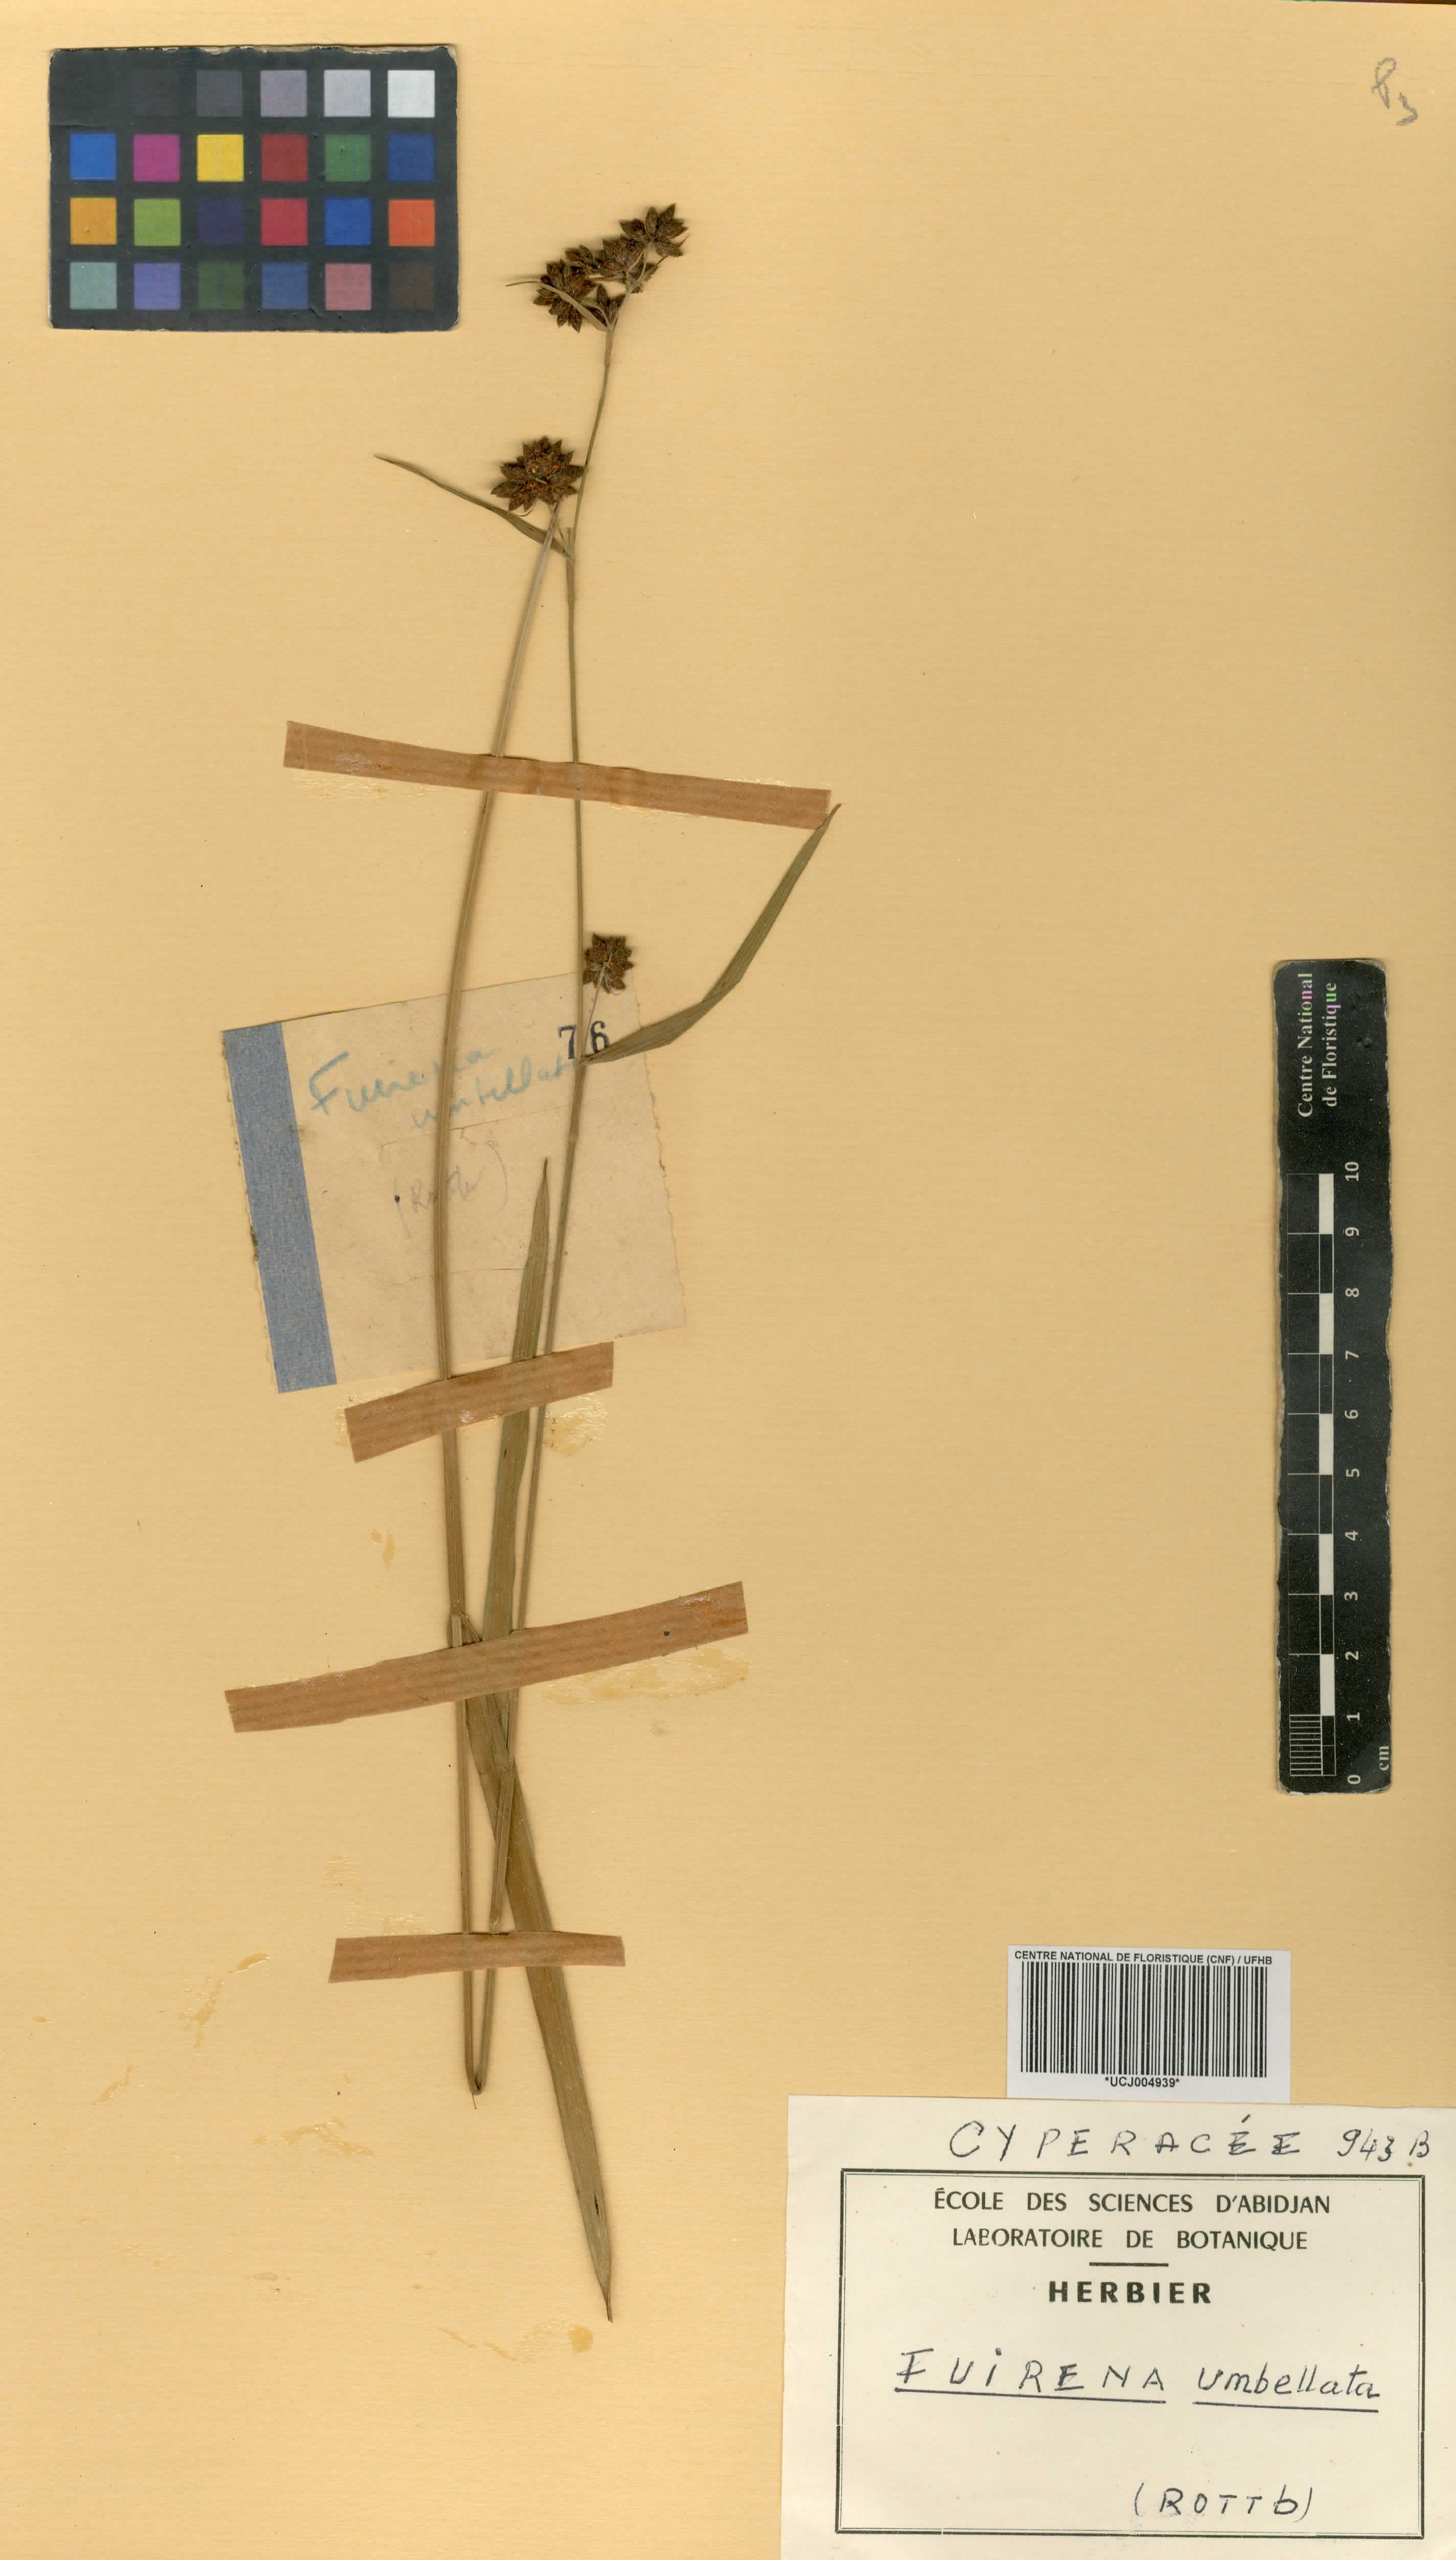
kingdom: Plantae
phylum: Tracheophyta
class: Liliopsida
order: Poales
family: Cyperaceae
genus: Fuirena
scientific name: Fuirena umbellata
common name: Yefen
